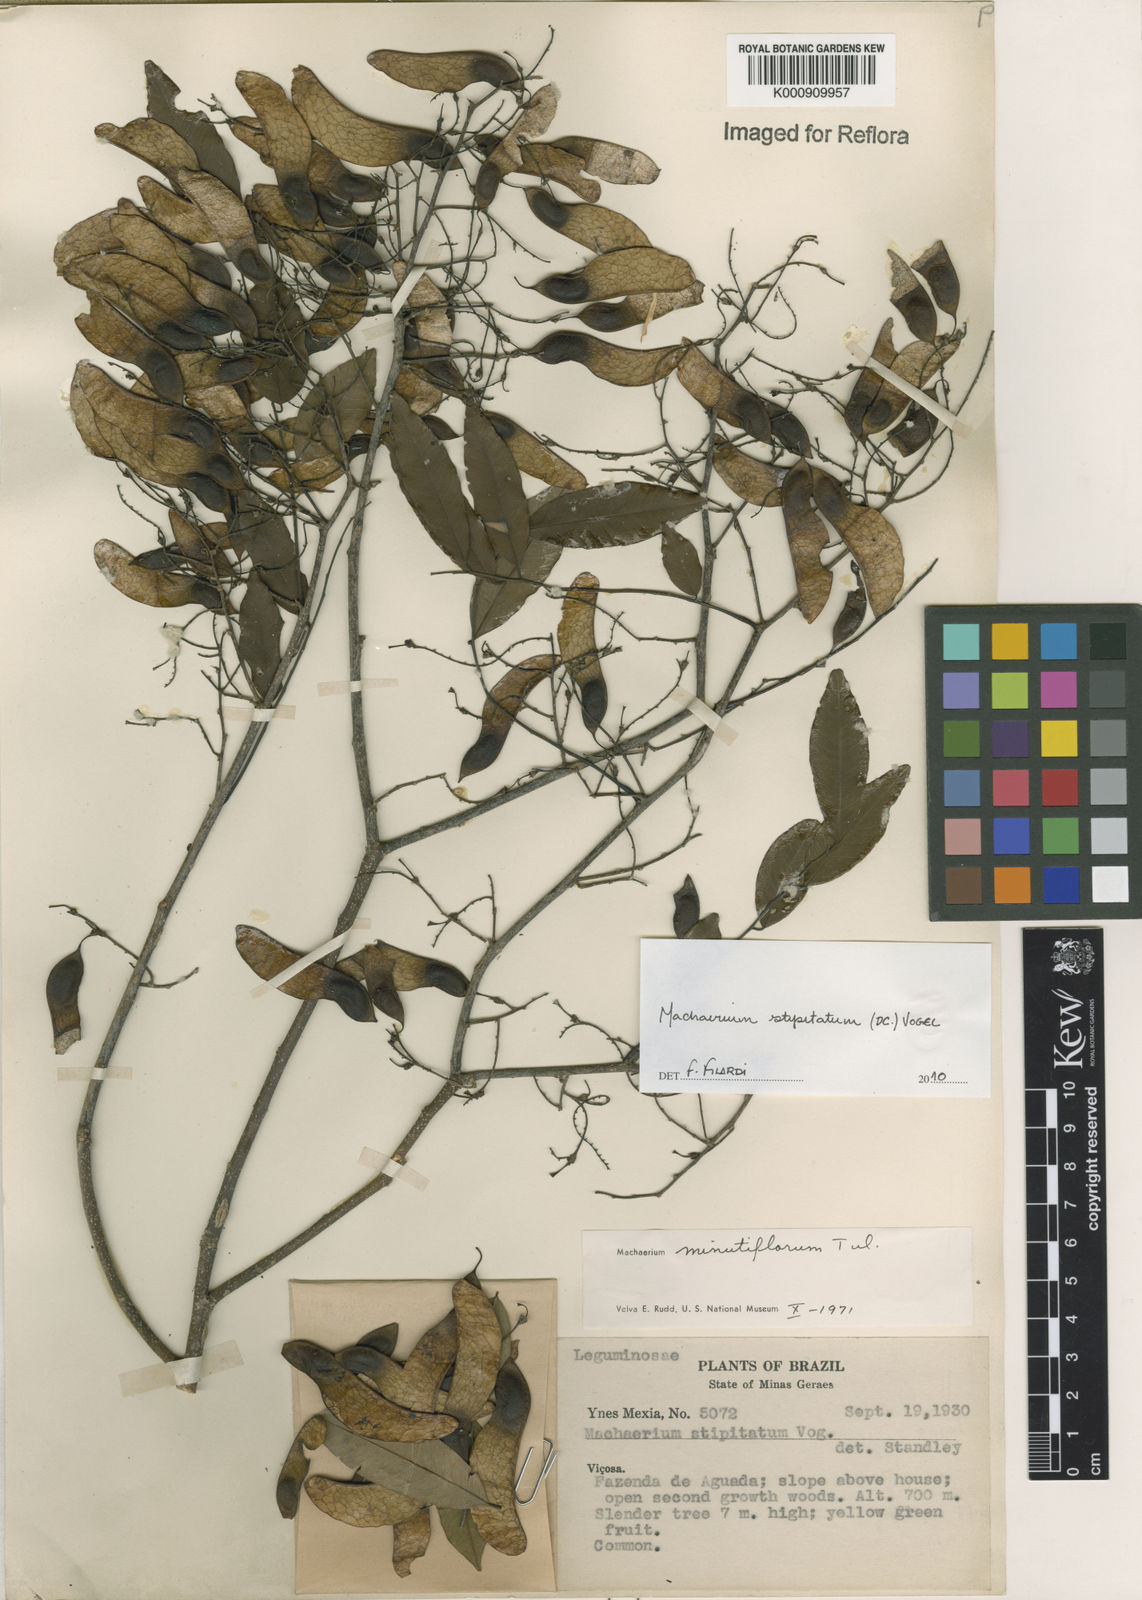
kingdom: Plantae
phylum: Tracheophyta
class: Magnoliopsida
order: Fabales
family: Fabaceae
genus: Machaerium
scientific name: Machaerium stipitatum
